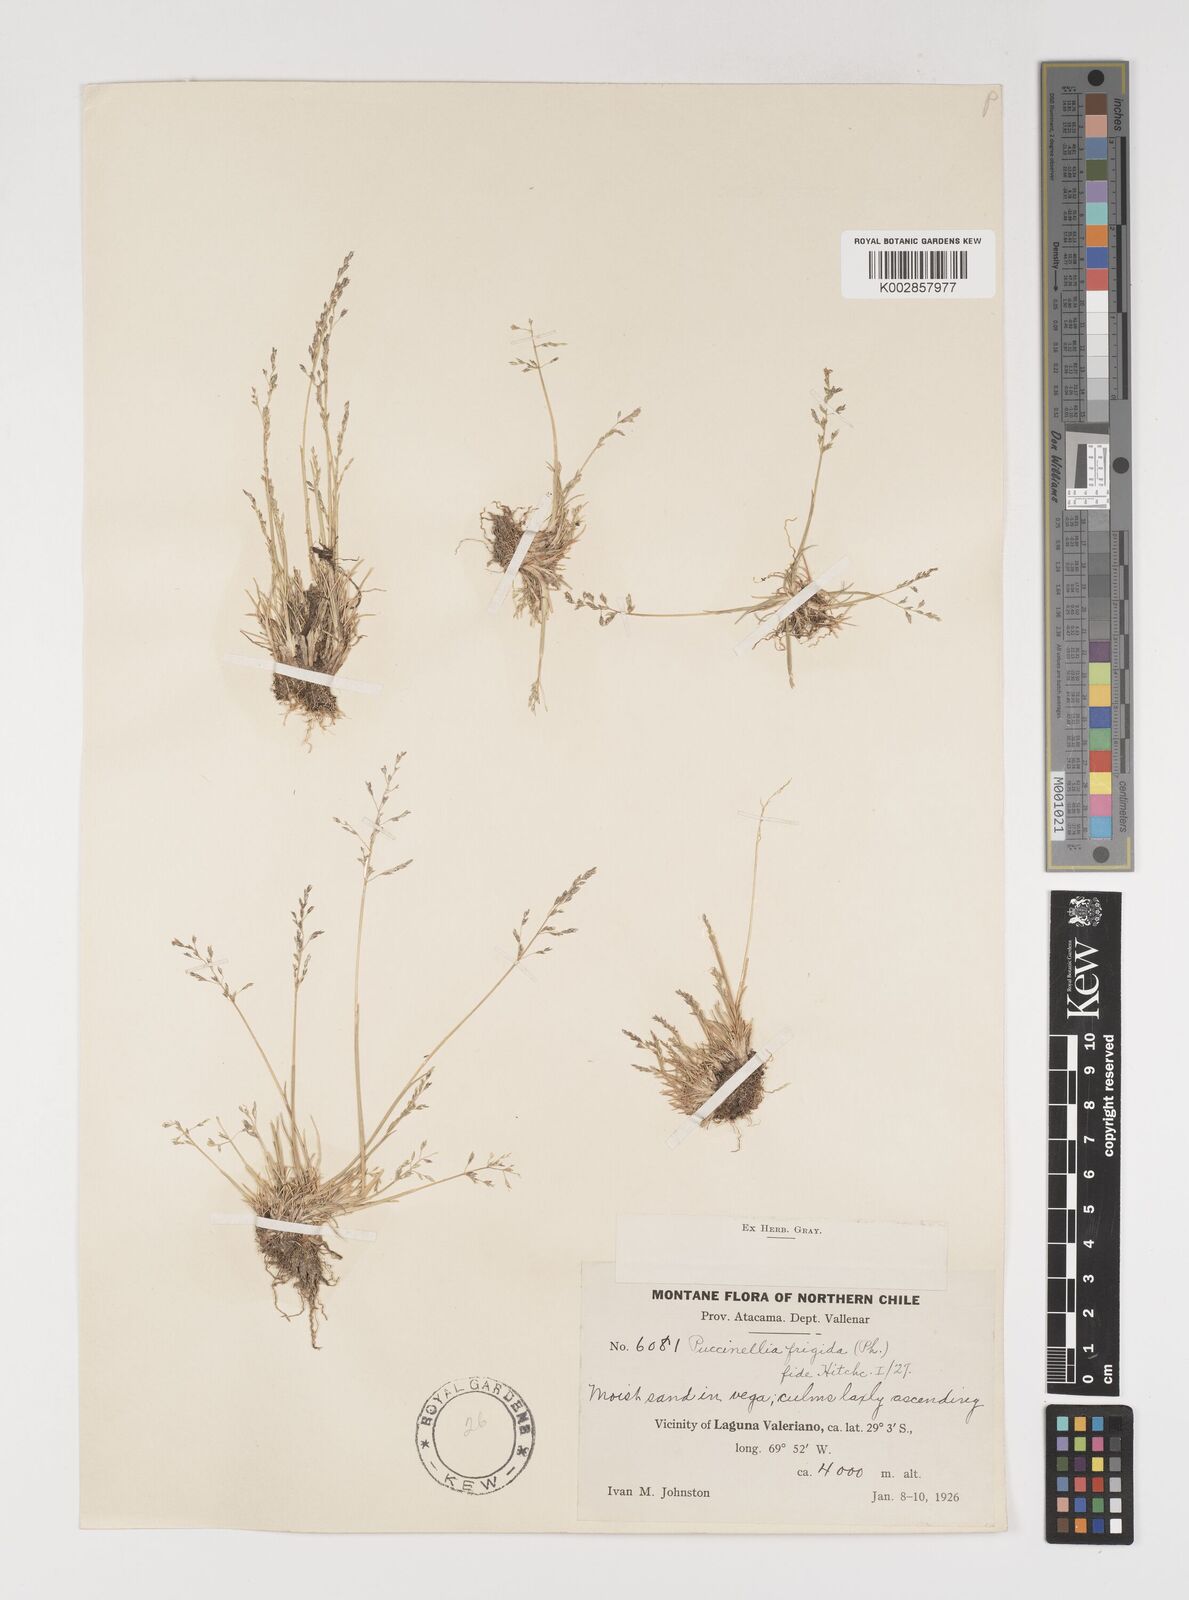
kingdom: Plantae
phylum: Tracheophyta
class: Liliopsida
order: Poales
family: Poaceae
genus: Puccinellia
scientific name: Puccinellia frigida
